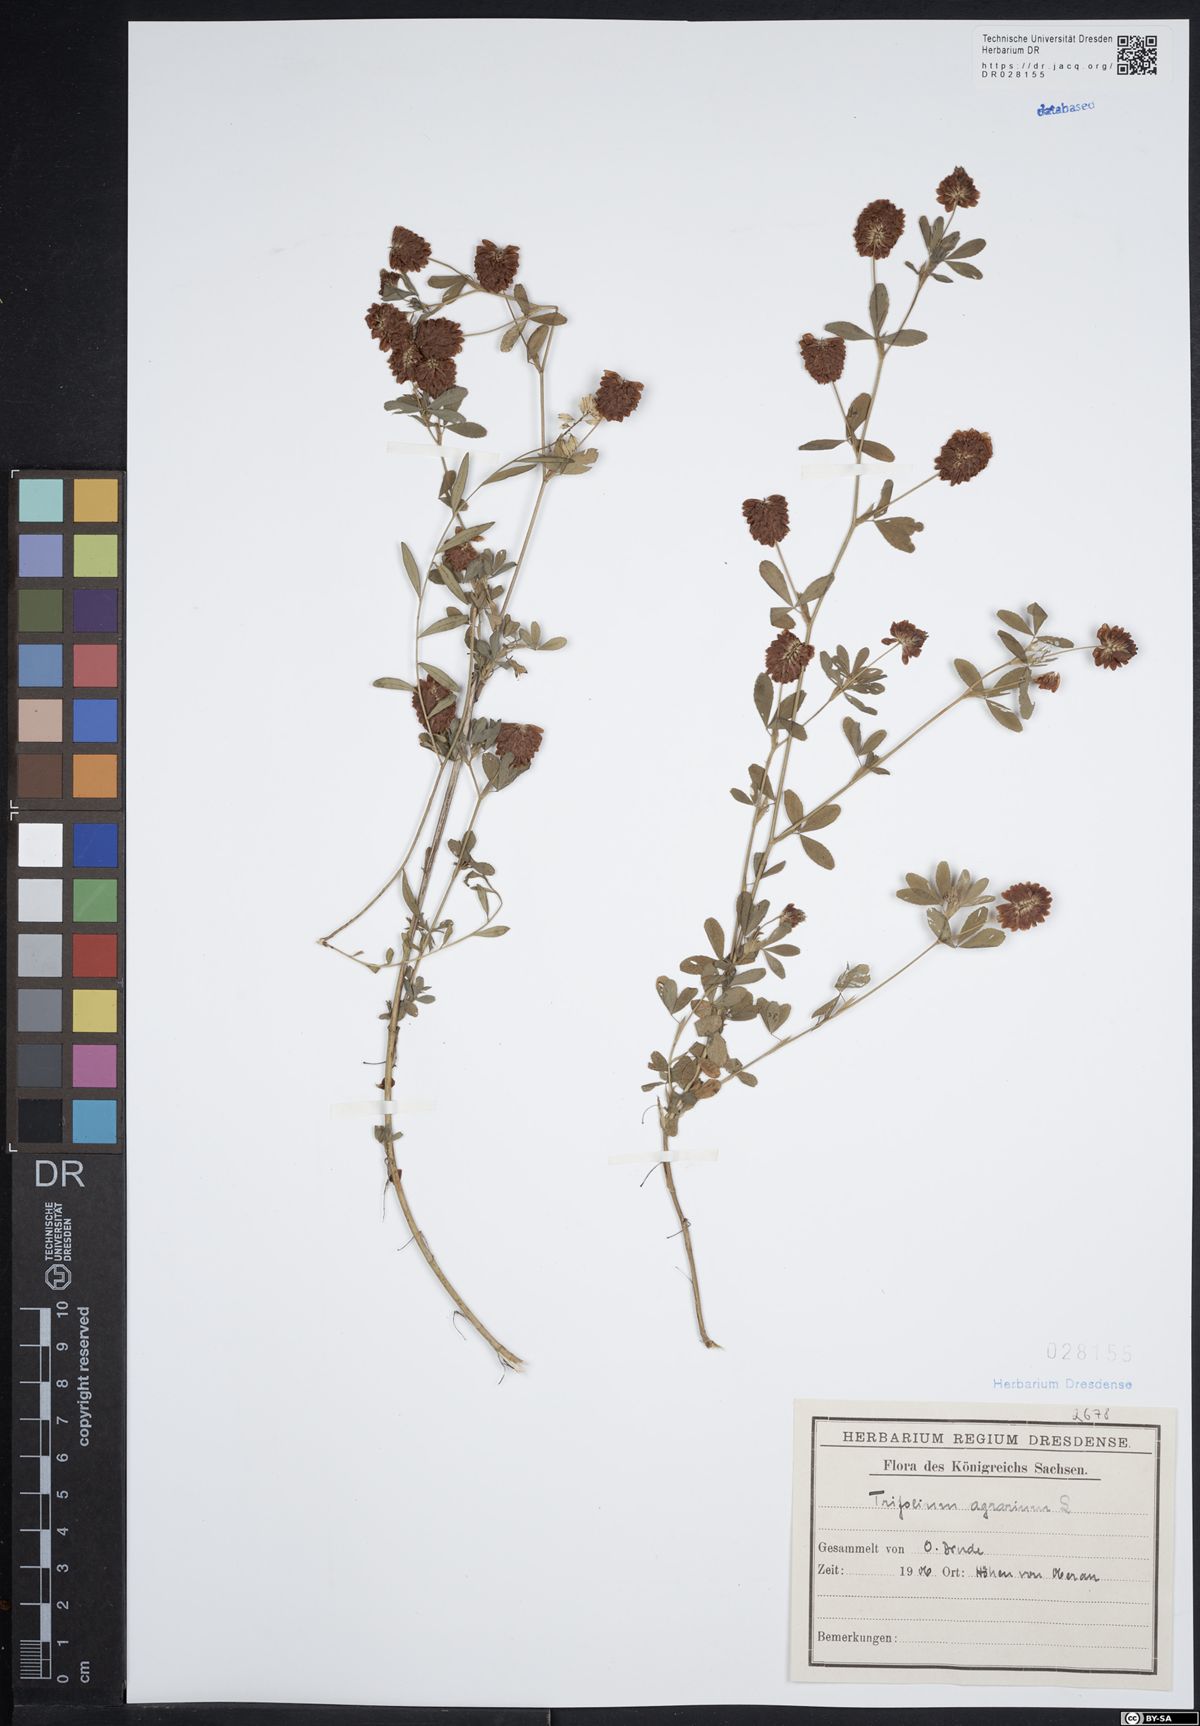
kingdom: Plantae
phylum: Tracheophyta
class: Magnoliopsida
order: Fabales
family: Fabaceae
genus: Trifolium
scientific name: Trifolium aureum
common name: Golden clover
